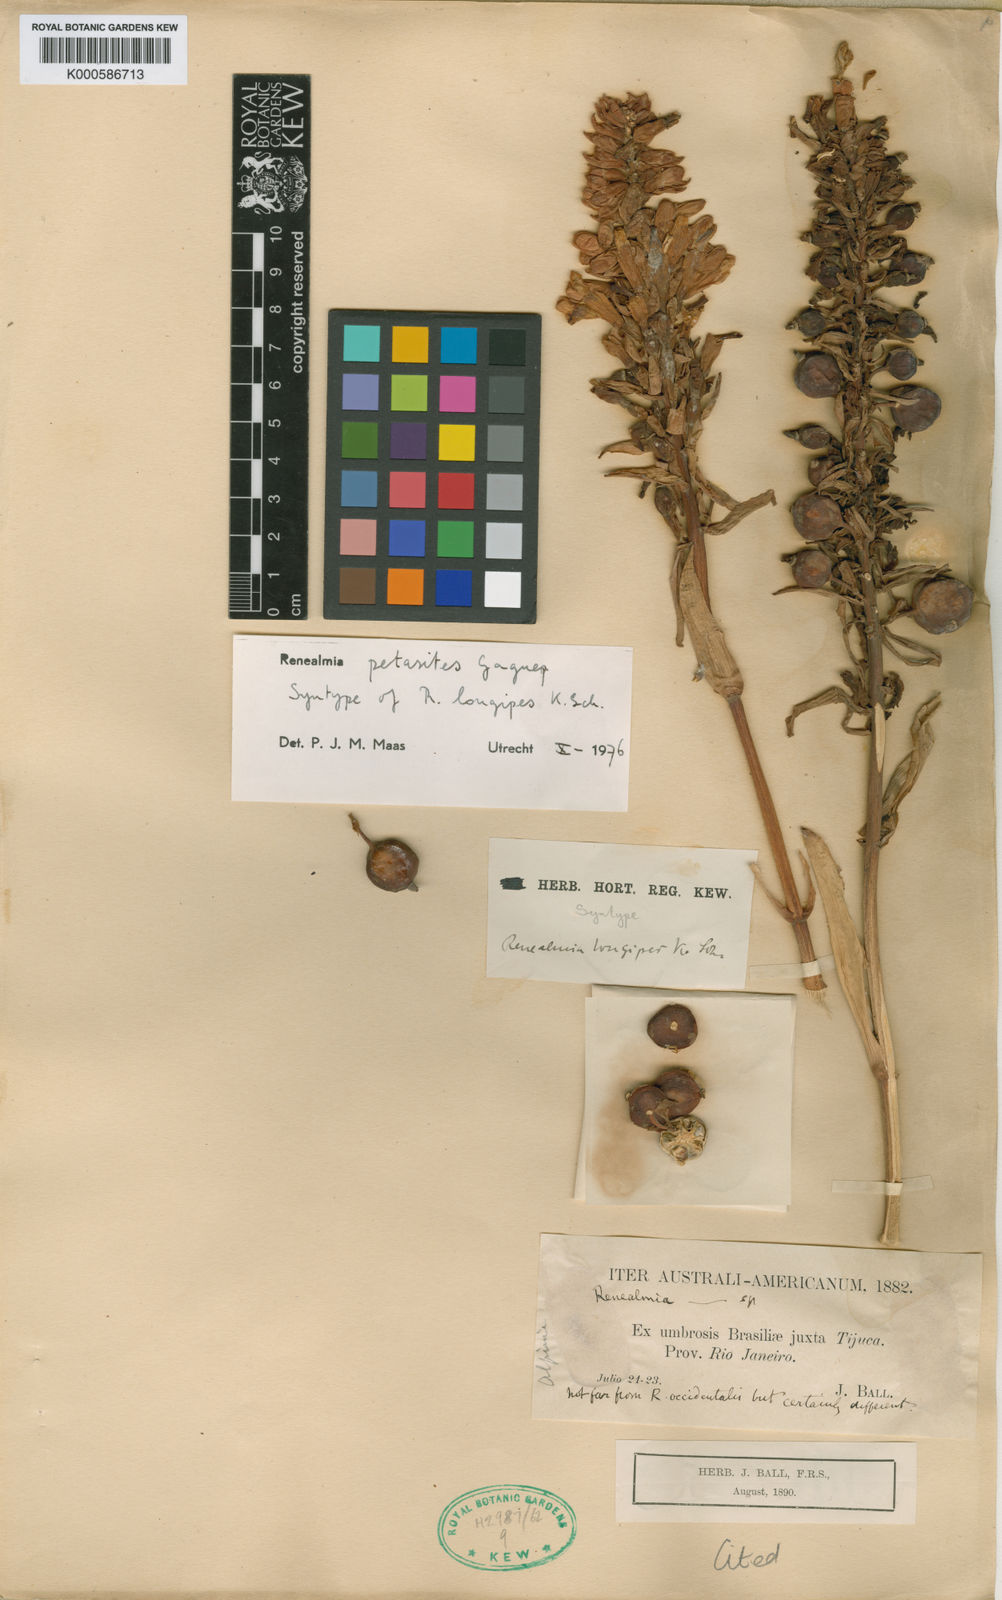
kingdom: Plantae
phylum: Tracheophyta
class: Liliopsida
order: Zingiberales
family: Zingiberaceae
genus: Renealmia
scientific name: Renealmia chrysotricha
